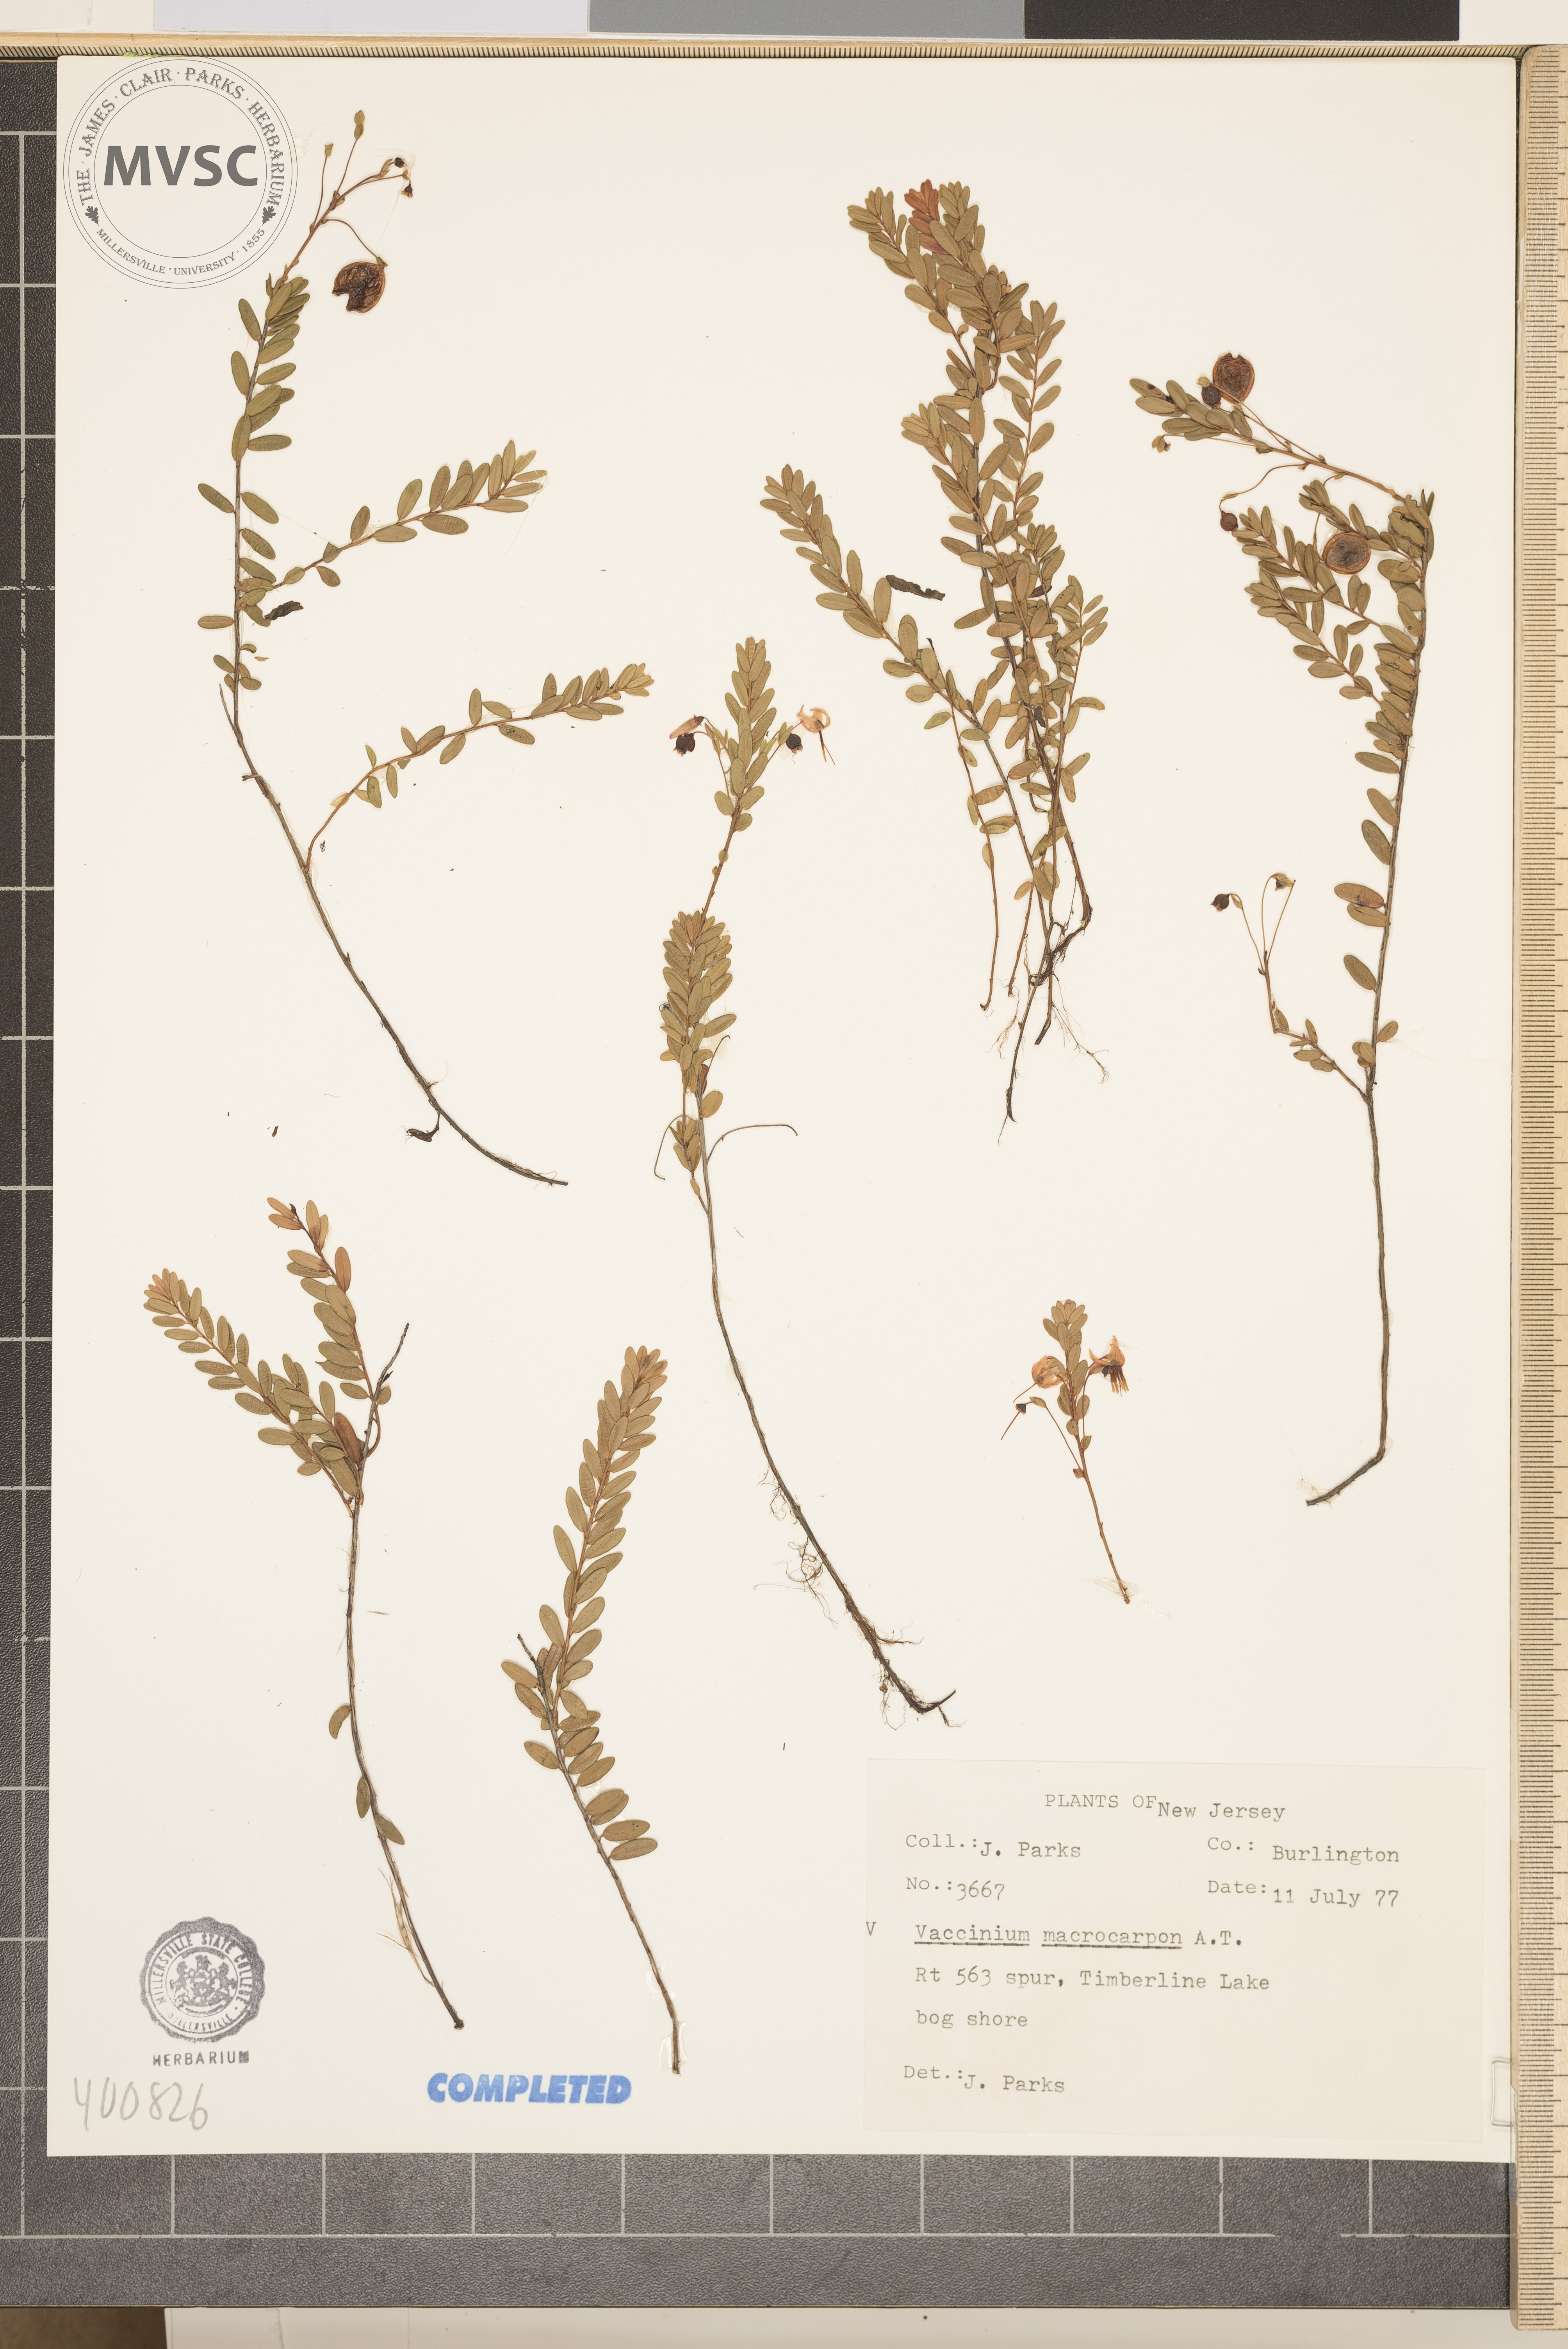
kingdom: Plantae
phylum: Tracheophyta
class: Magnoliopsida
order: Ericales
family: Ericaceae
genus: Vaccinium
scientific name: Vaccinium macrocarpon
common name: blueberry
